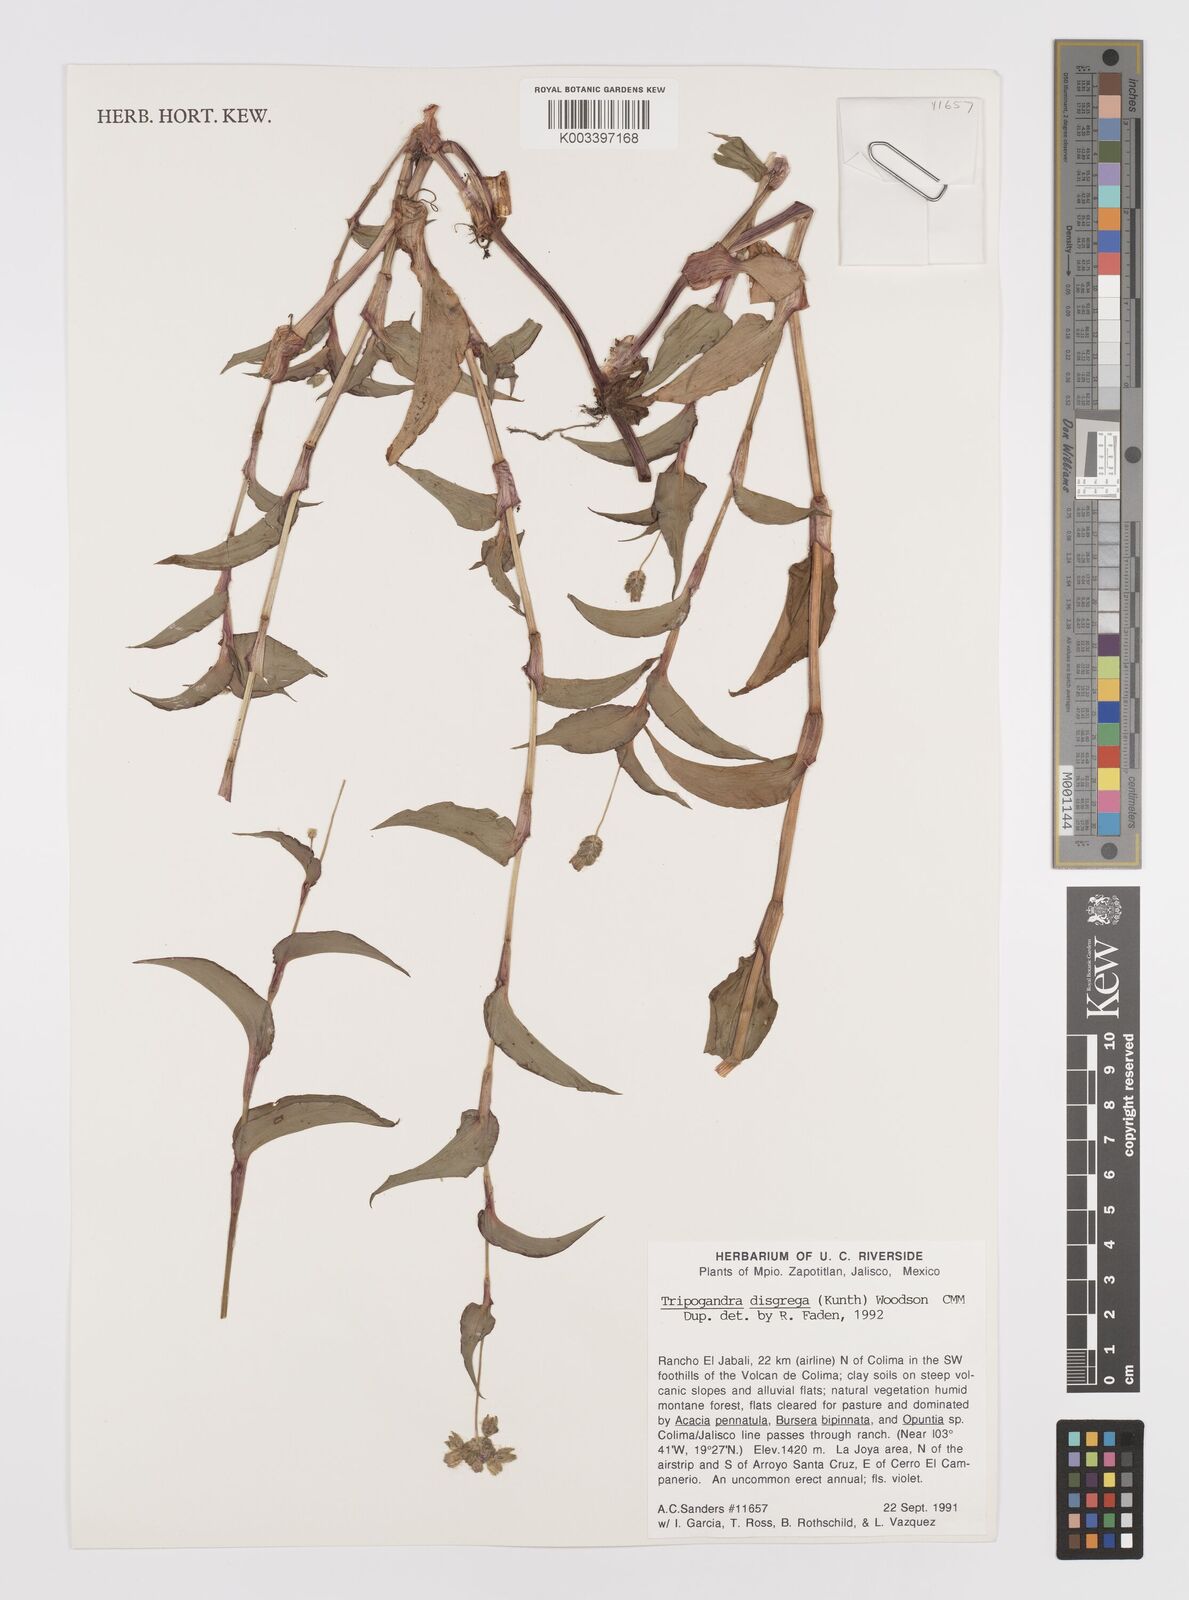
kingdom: Plantae
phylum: Tracheophyta
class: Liliopsida
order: Commelinales
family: Commelinaceae
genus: Callisia
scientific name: Callisia disgrega
